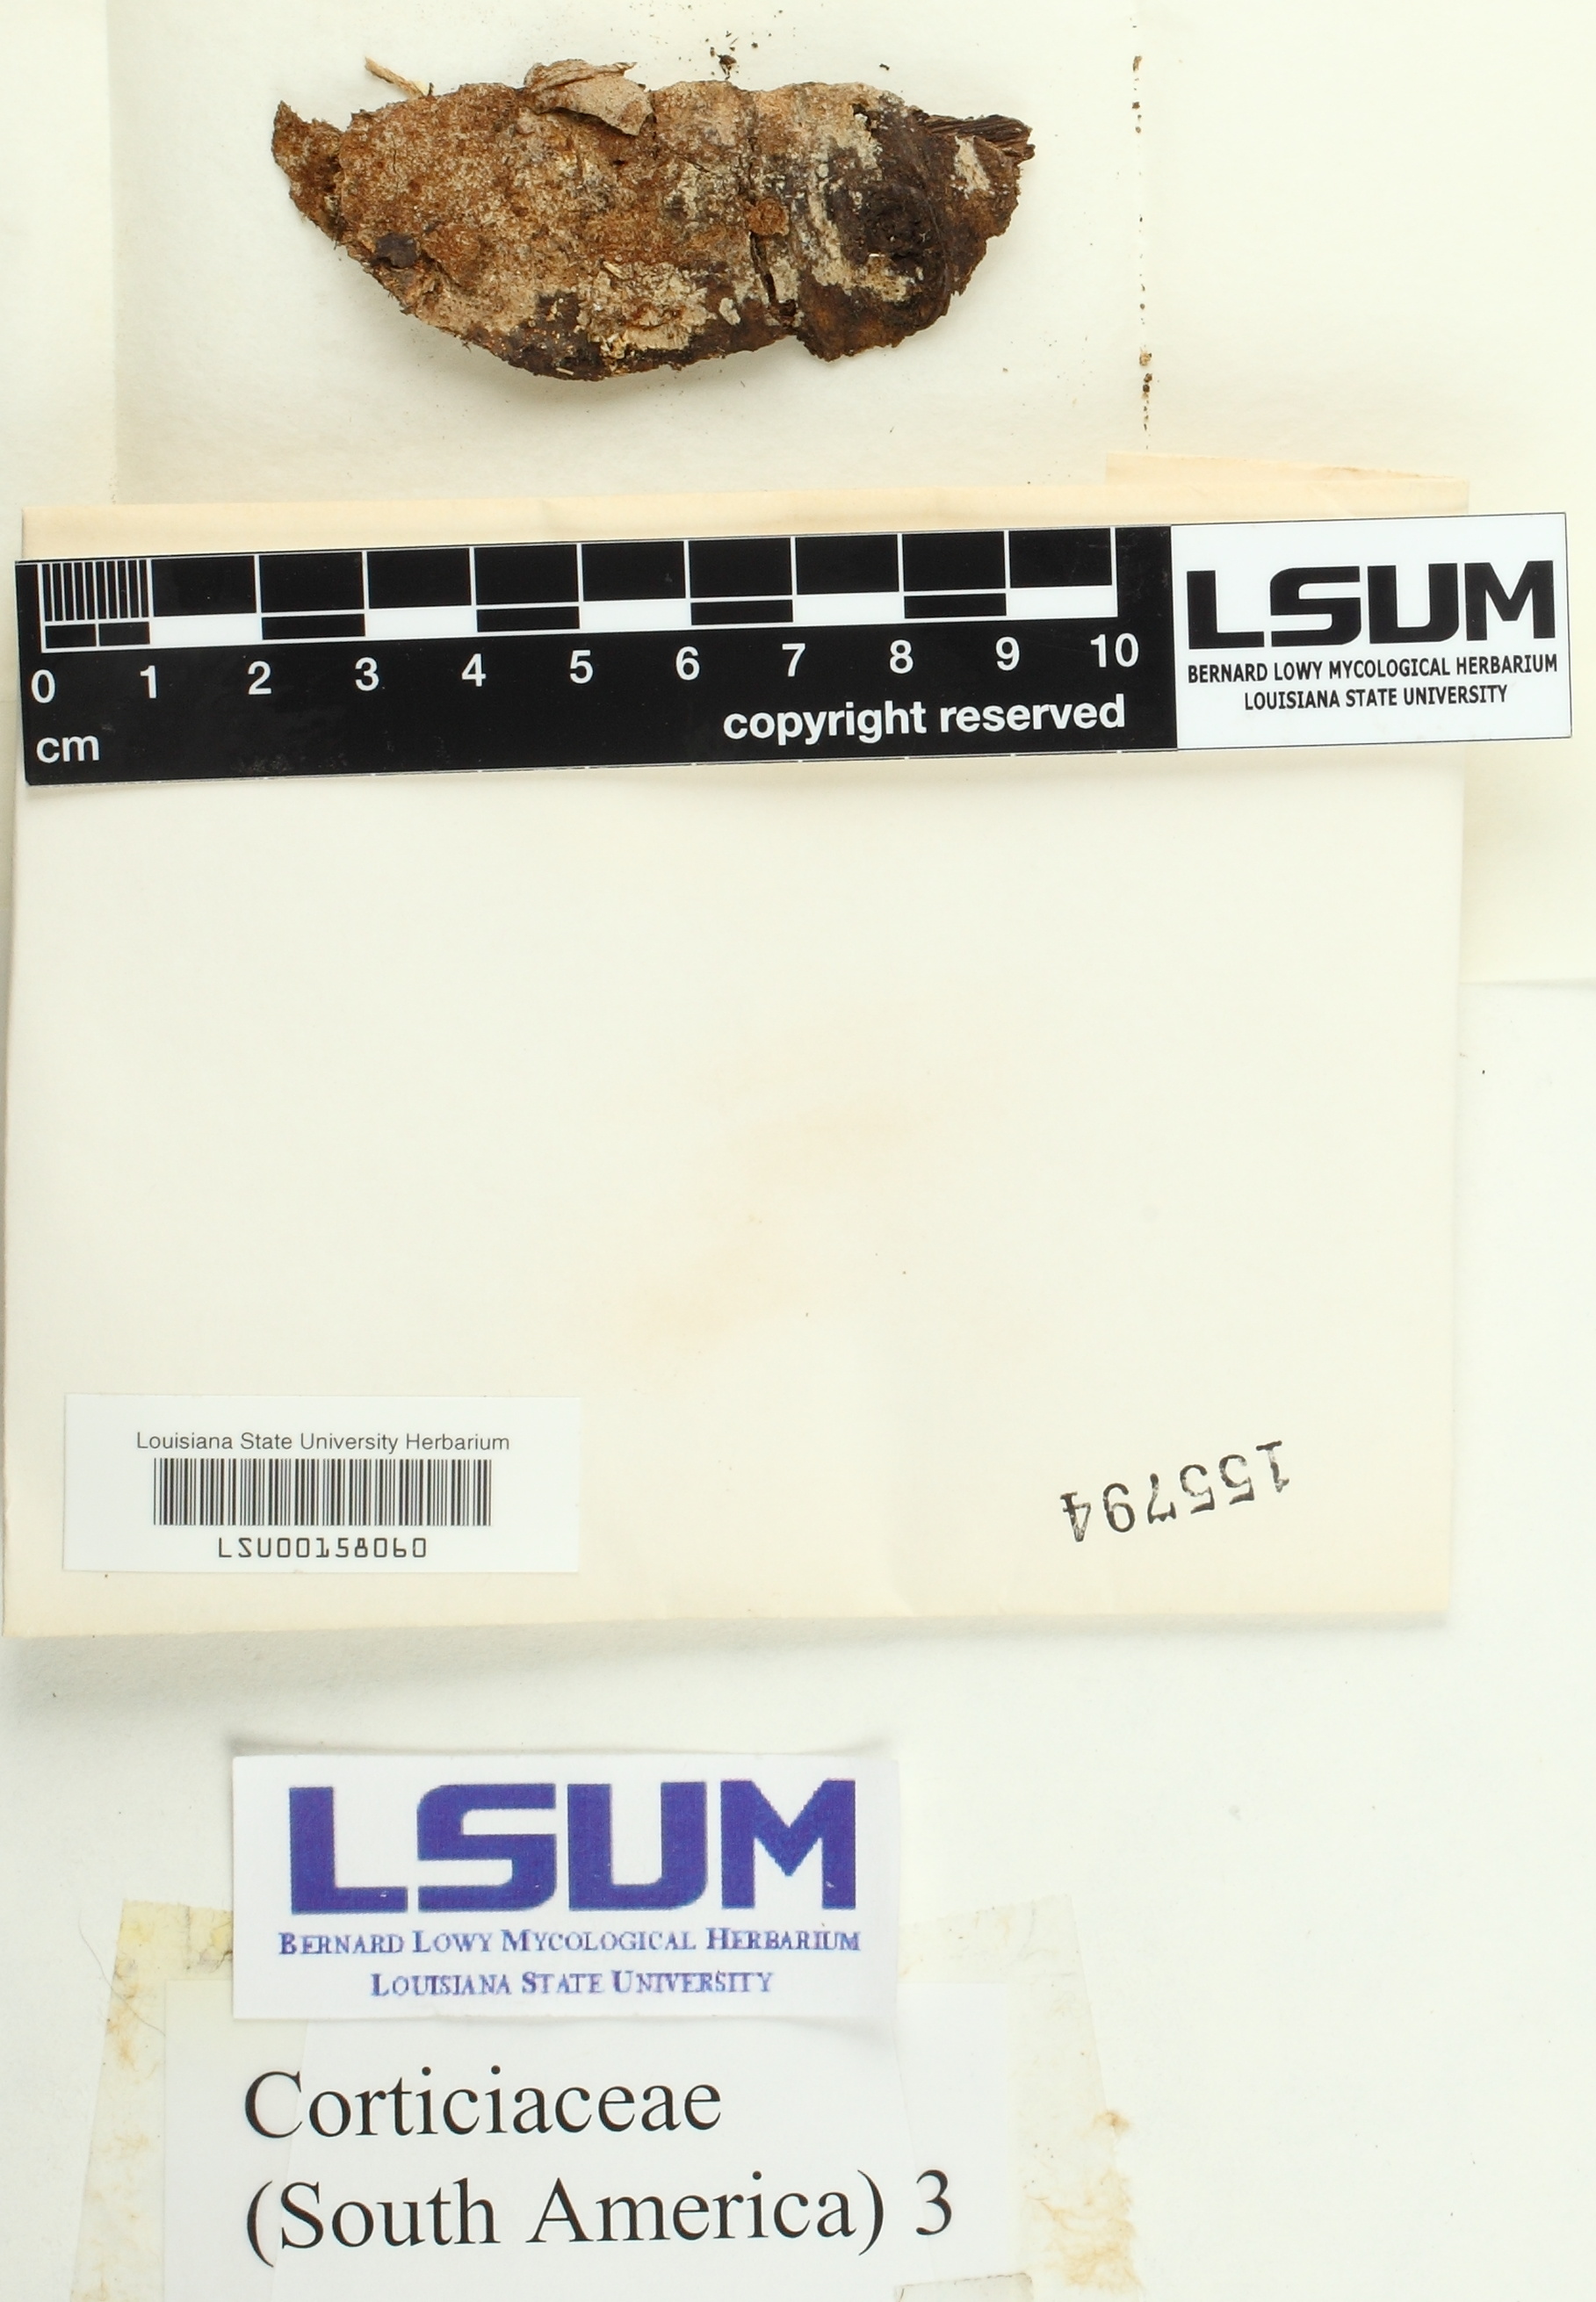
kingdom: Fungi
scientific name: Fungi
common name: Fungi
